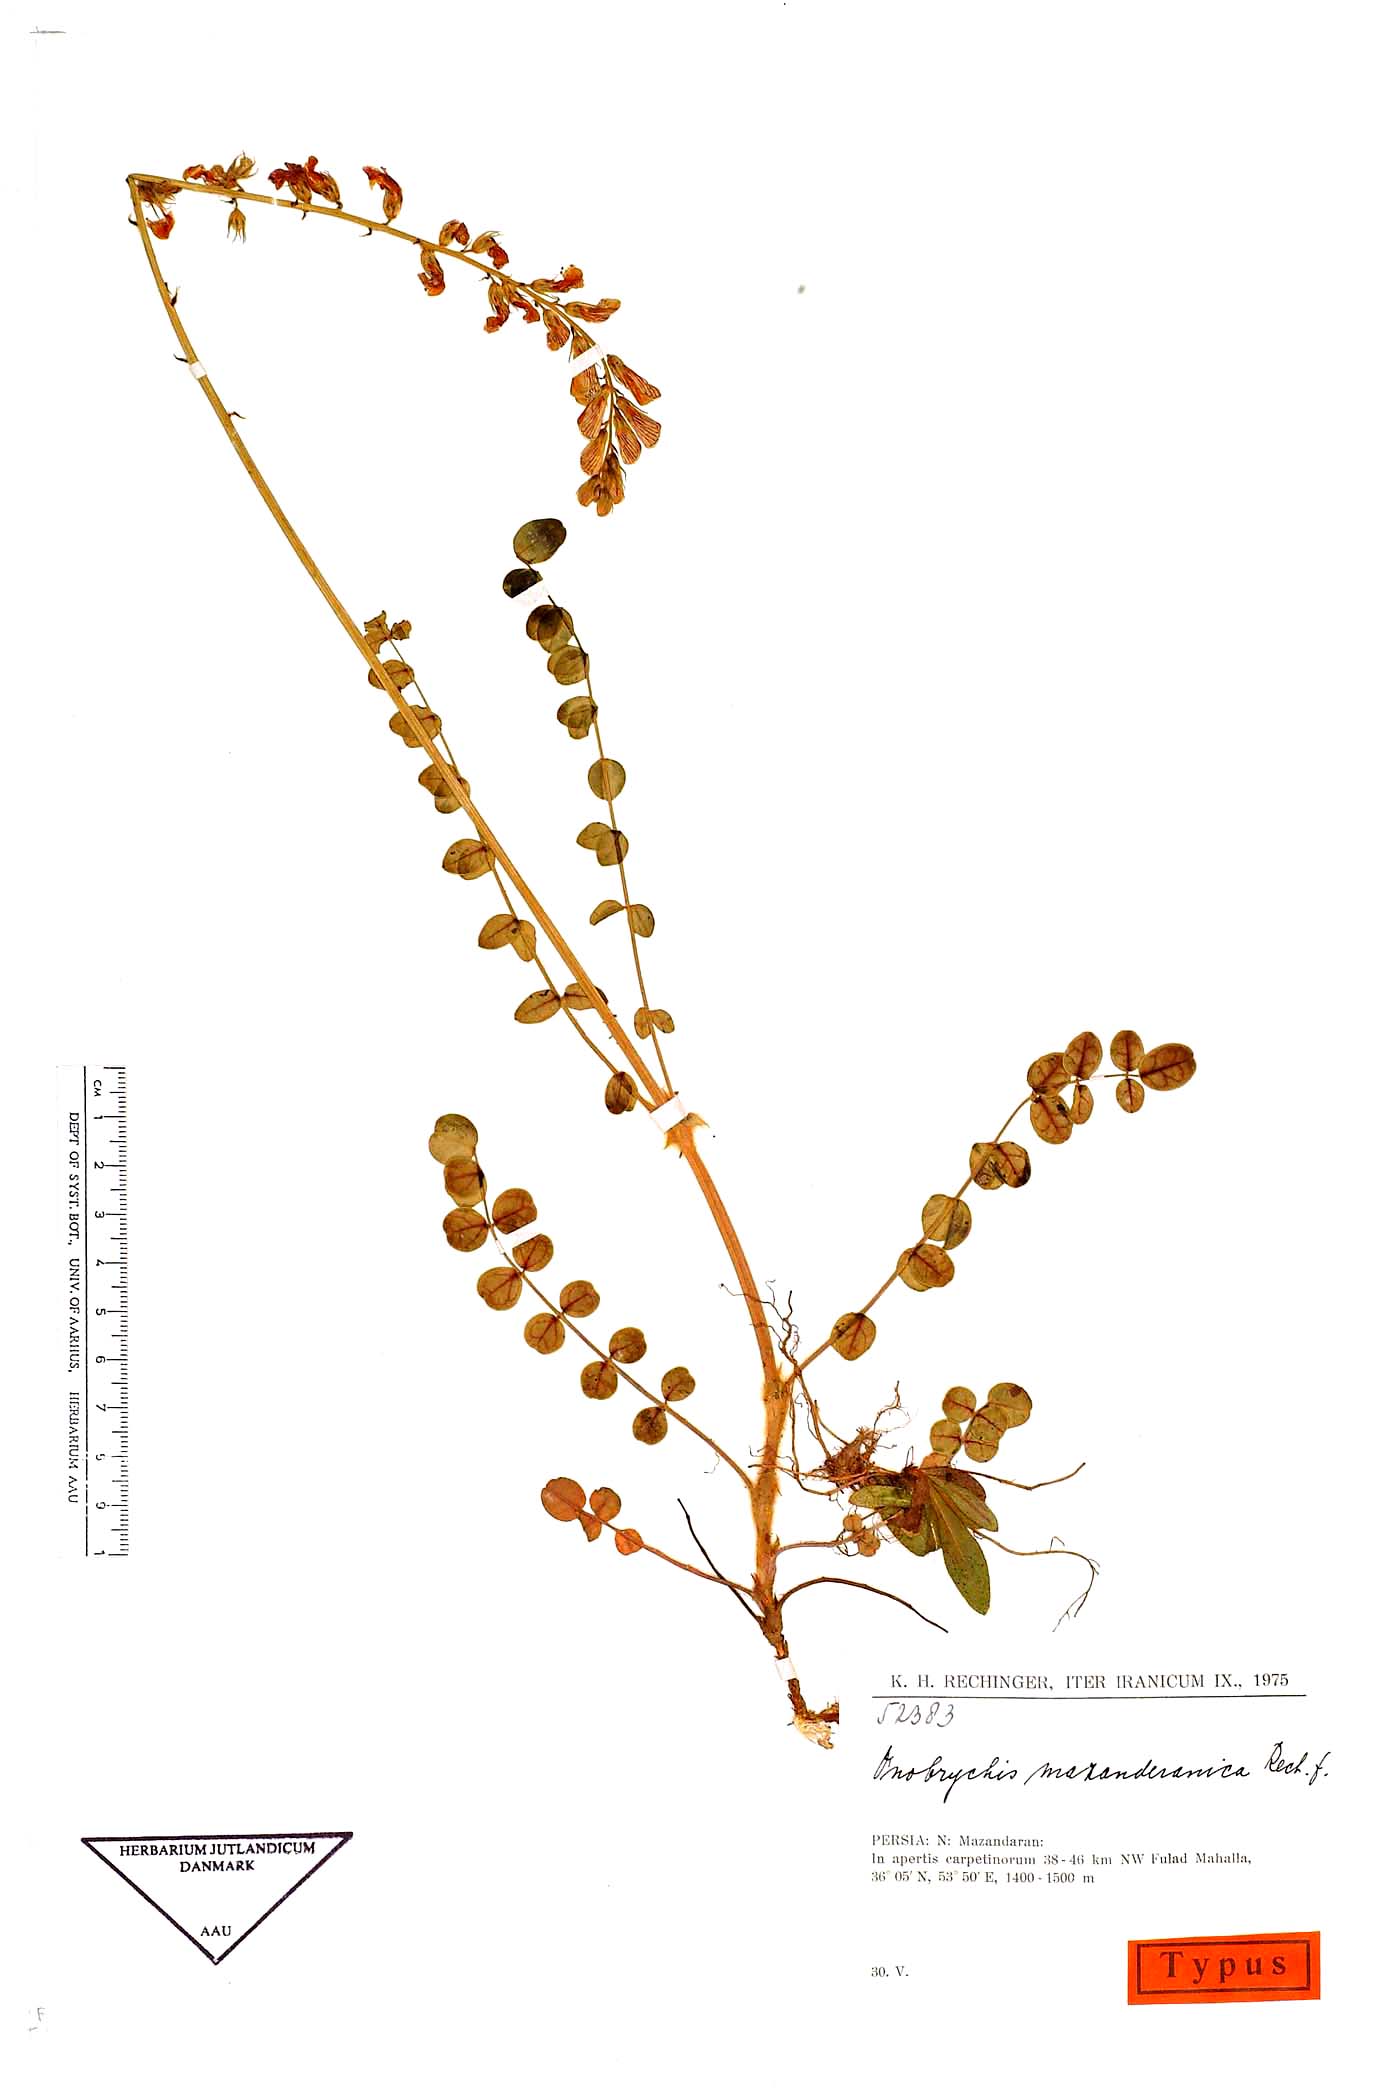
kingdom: Plantae
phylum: Tracheophyta
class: Magnoliopsida
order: Fabales
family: Fabaceae
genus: Onobrychis
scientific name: Onobrychis mazanderanica
